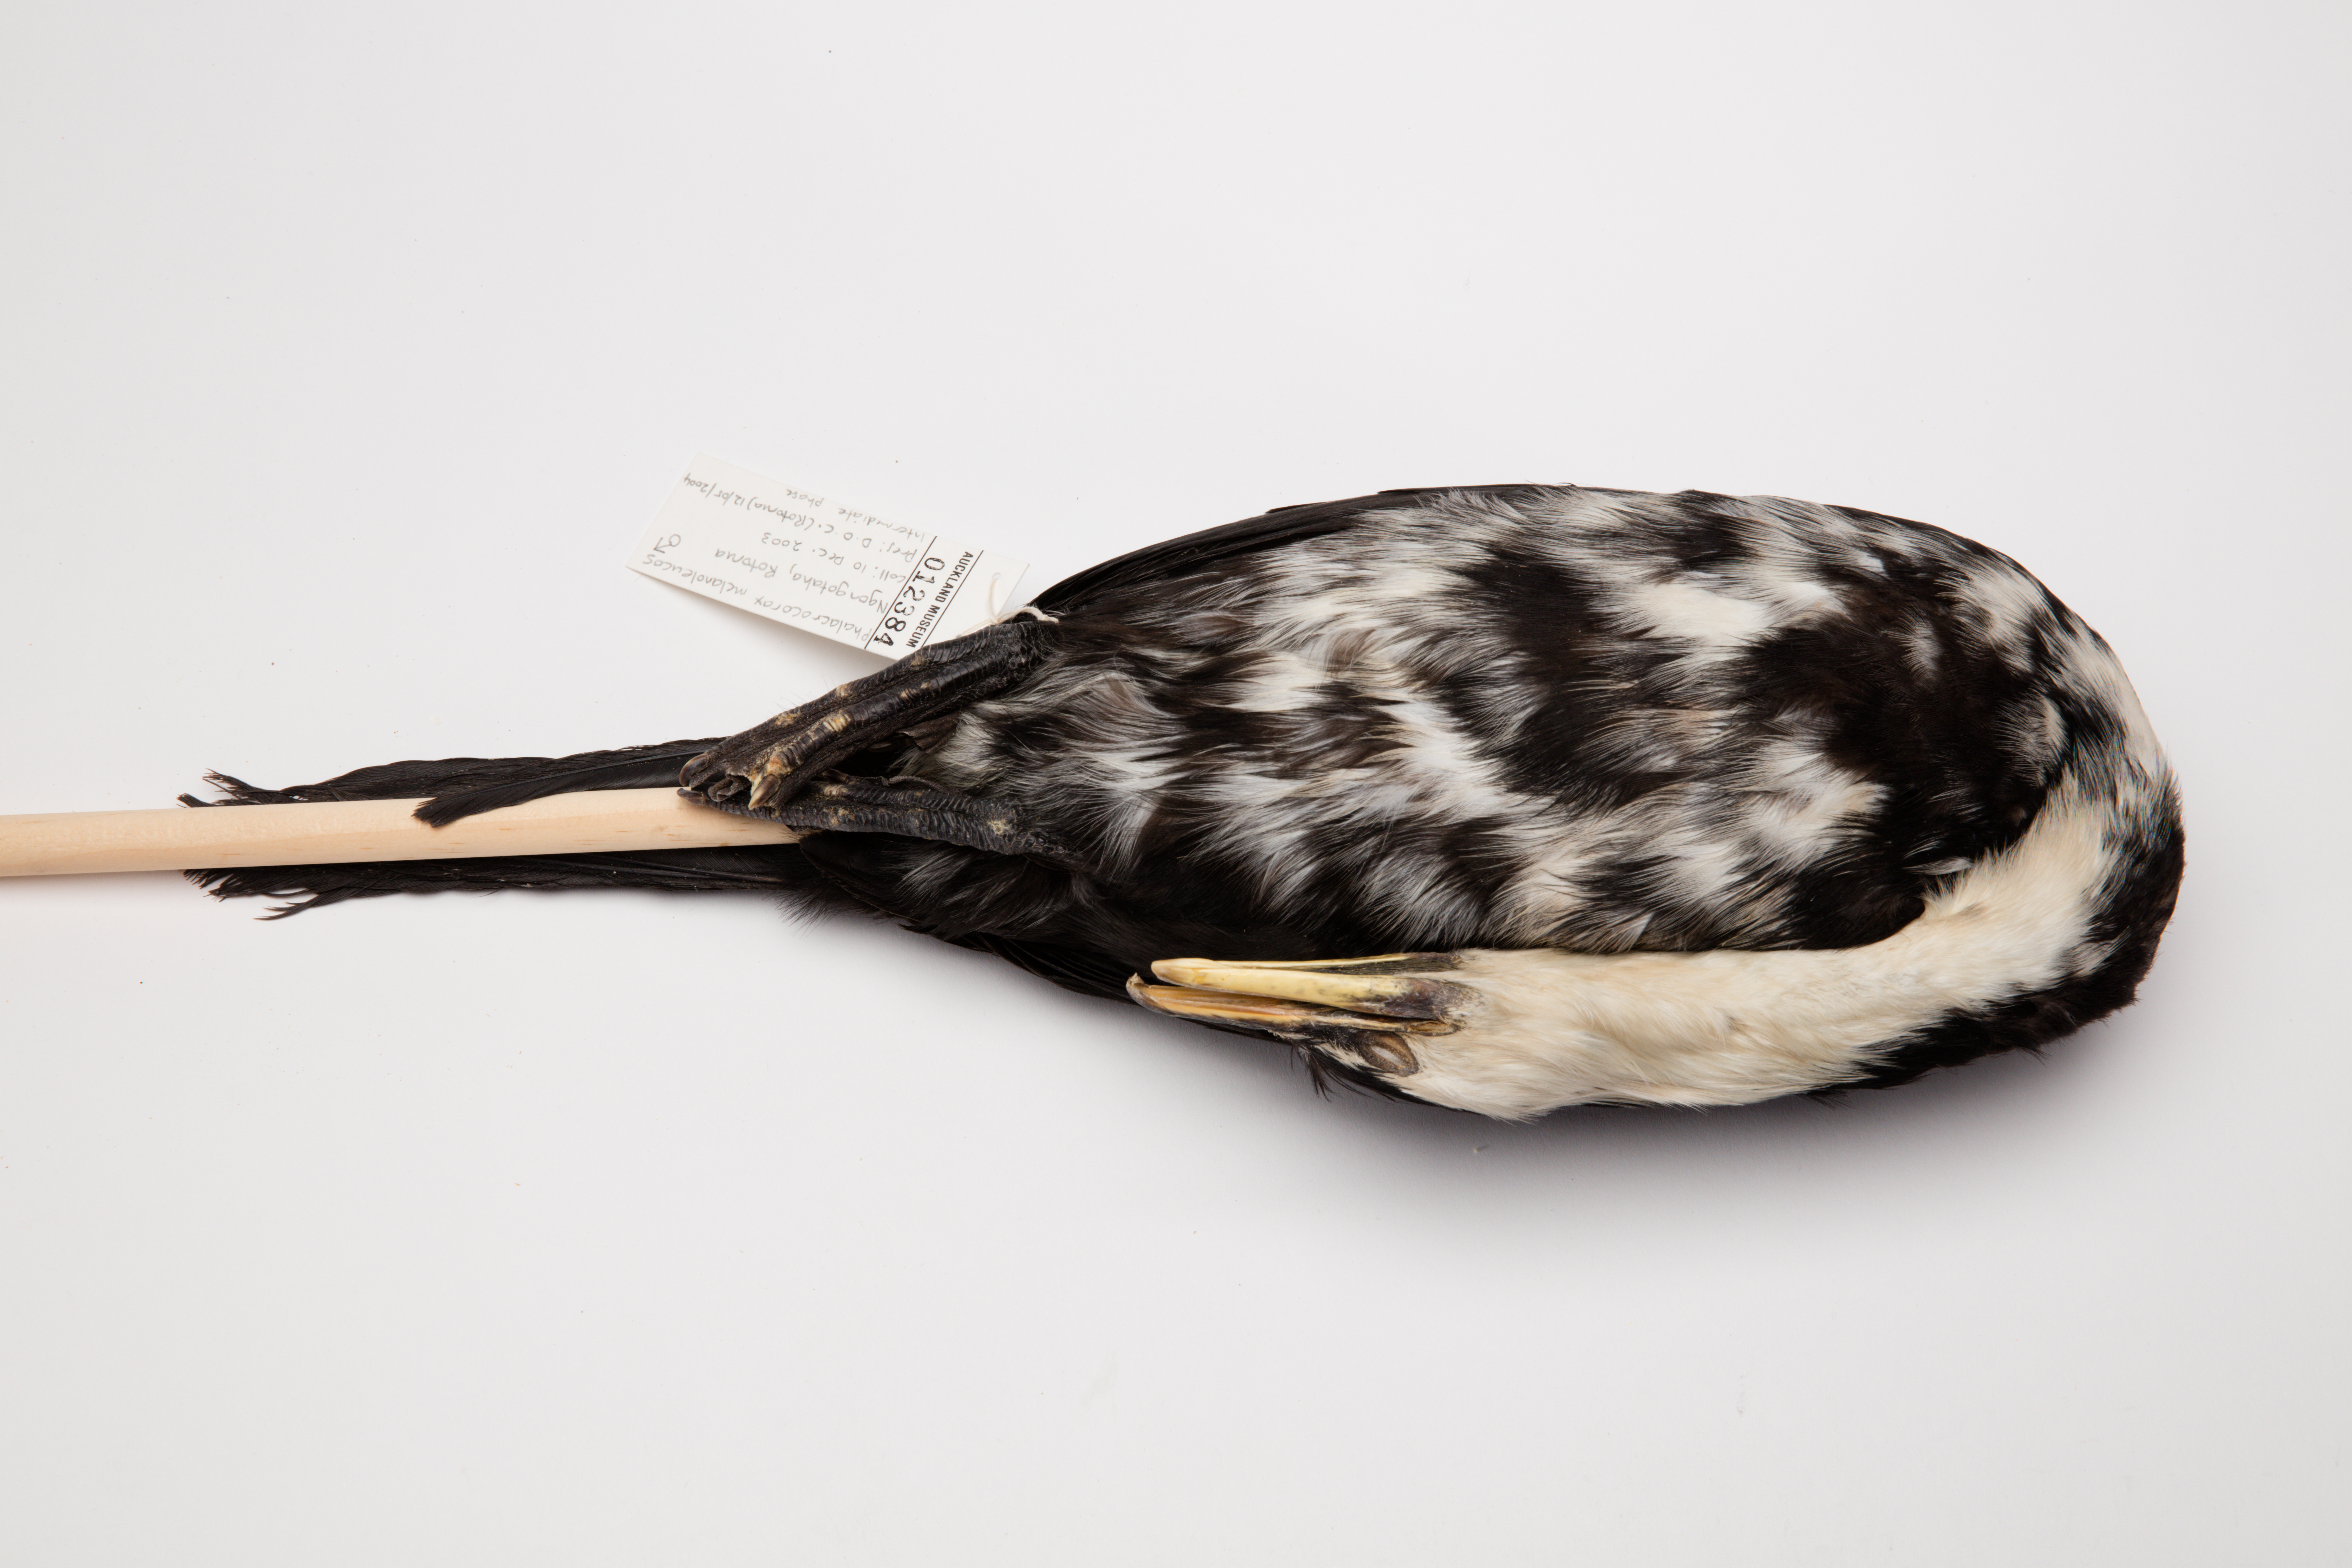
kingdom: Animalia
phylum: Chordata
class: Aves
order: Suliformes
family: Phalacrocoracidae
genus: Microcarbo
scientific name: Microcarbo melanoleucos
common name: Little pied cormorant
